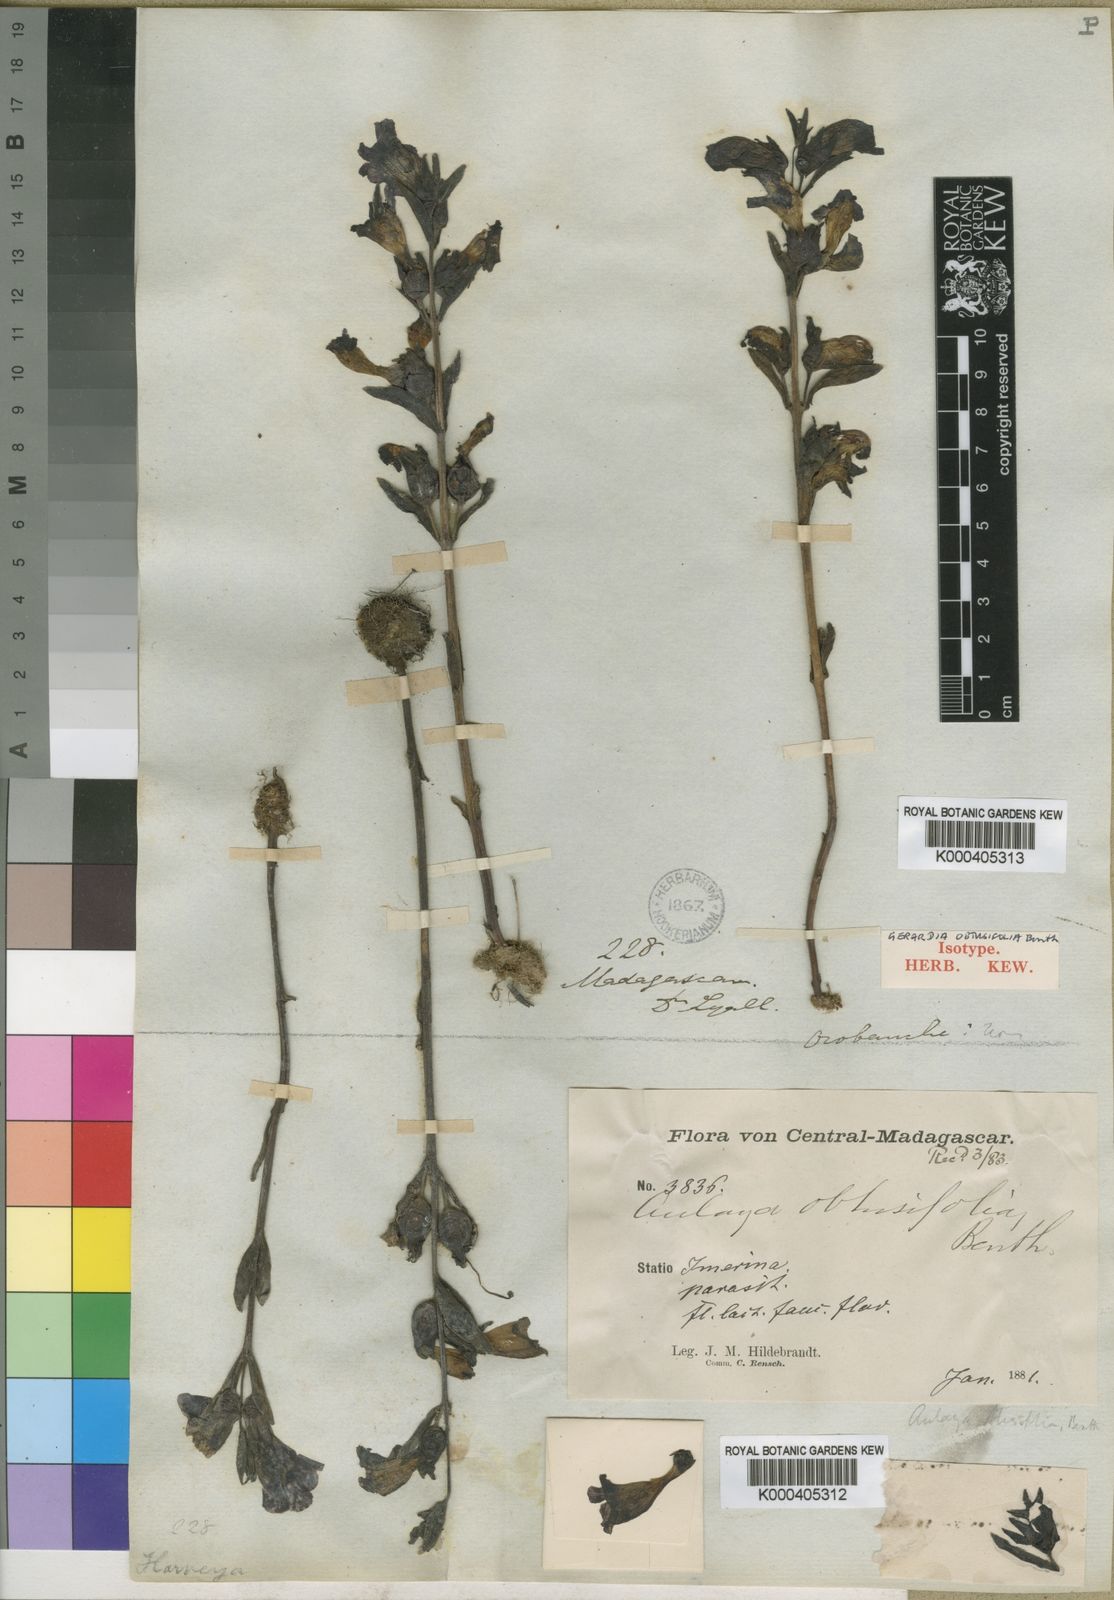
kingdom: Plantae
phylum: Tracheophyta
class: Magnoliopsida
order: Lamiales
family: Orobanchaceae
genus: Harveya
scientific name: Harveya obtusifolia
